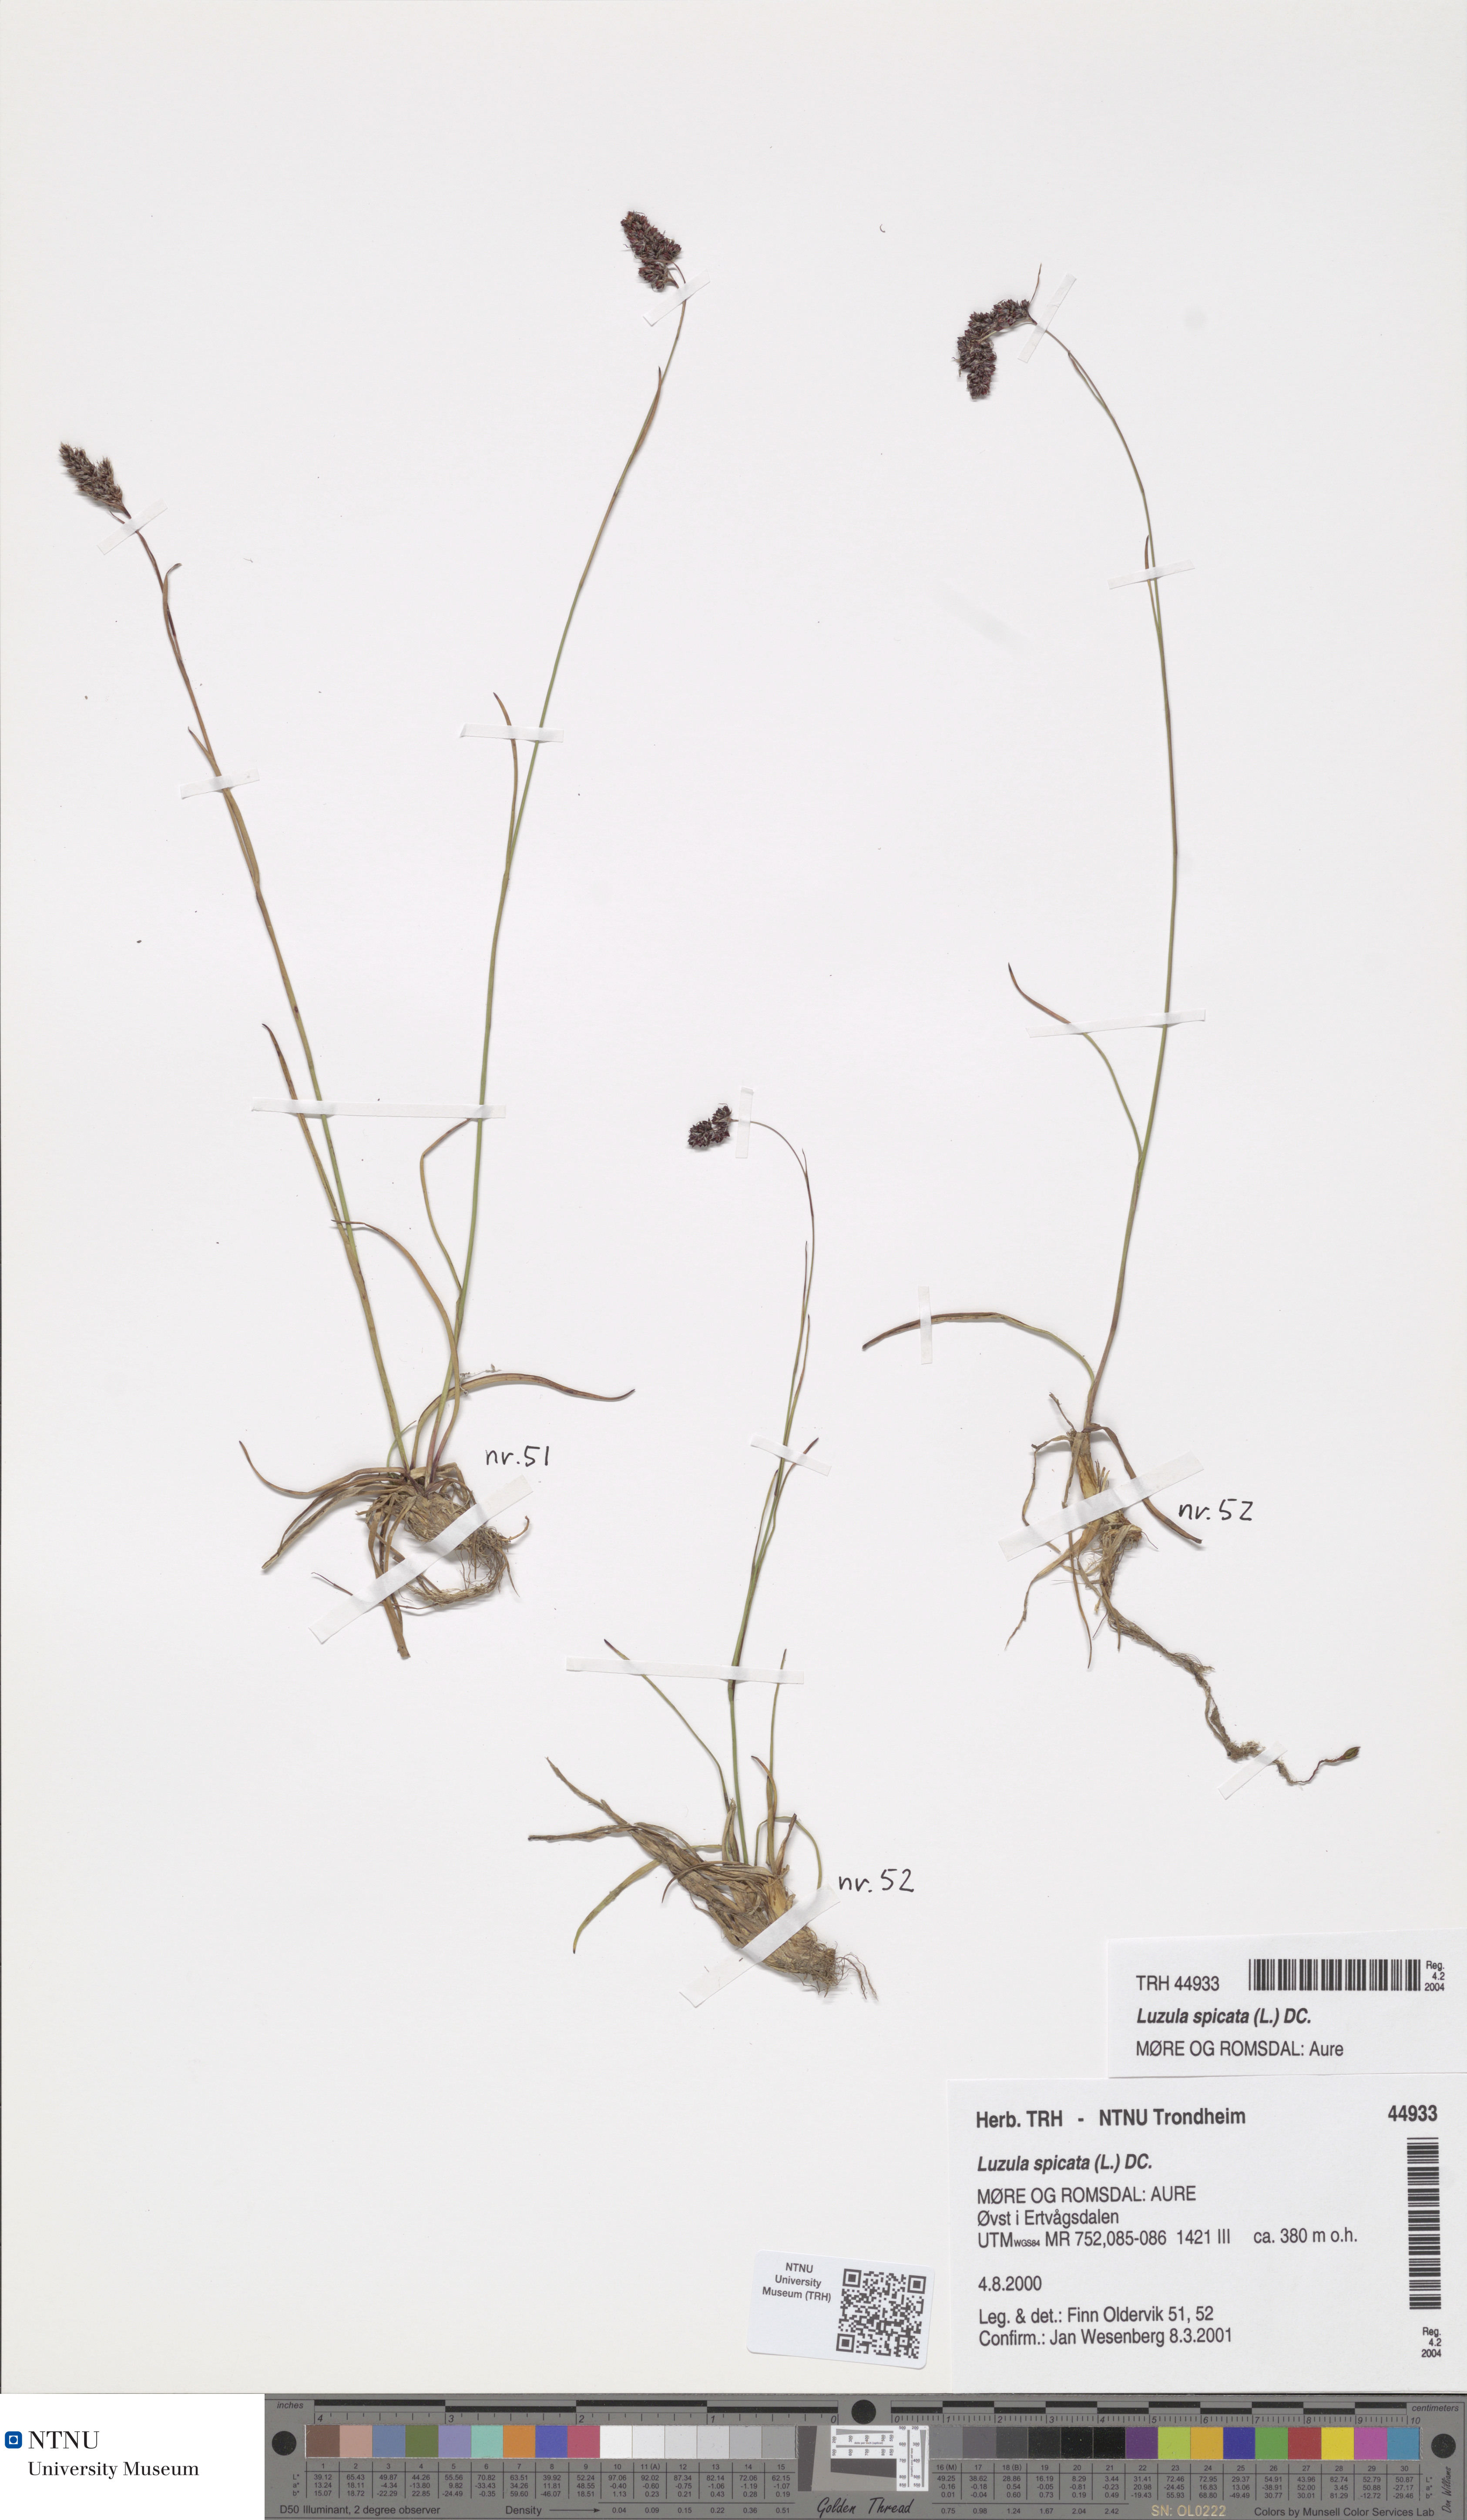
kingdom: Plantae
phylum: Tracheophyta
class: Liliopsida
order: Poales
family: Juncaceae
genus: Luzula
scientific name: Luzula spicata
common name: Spiked wood-rush
